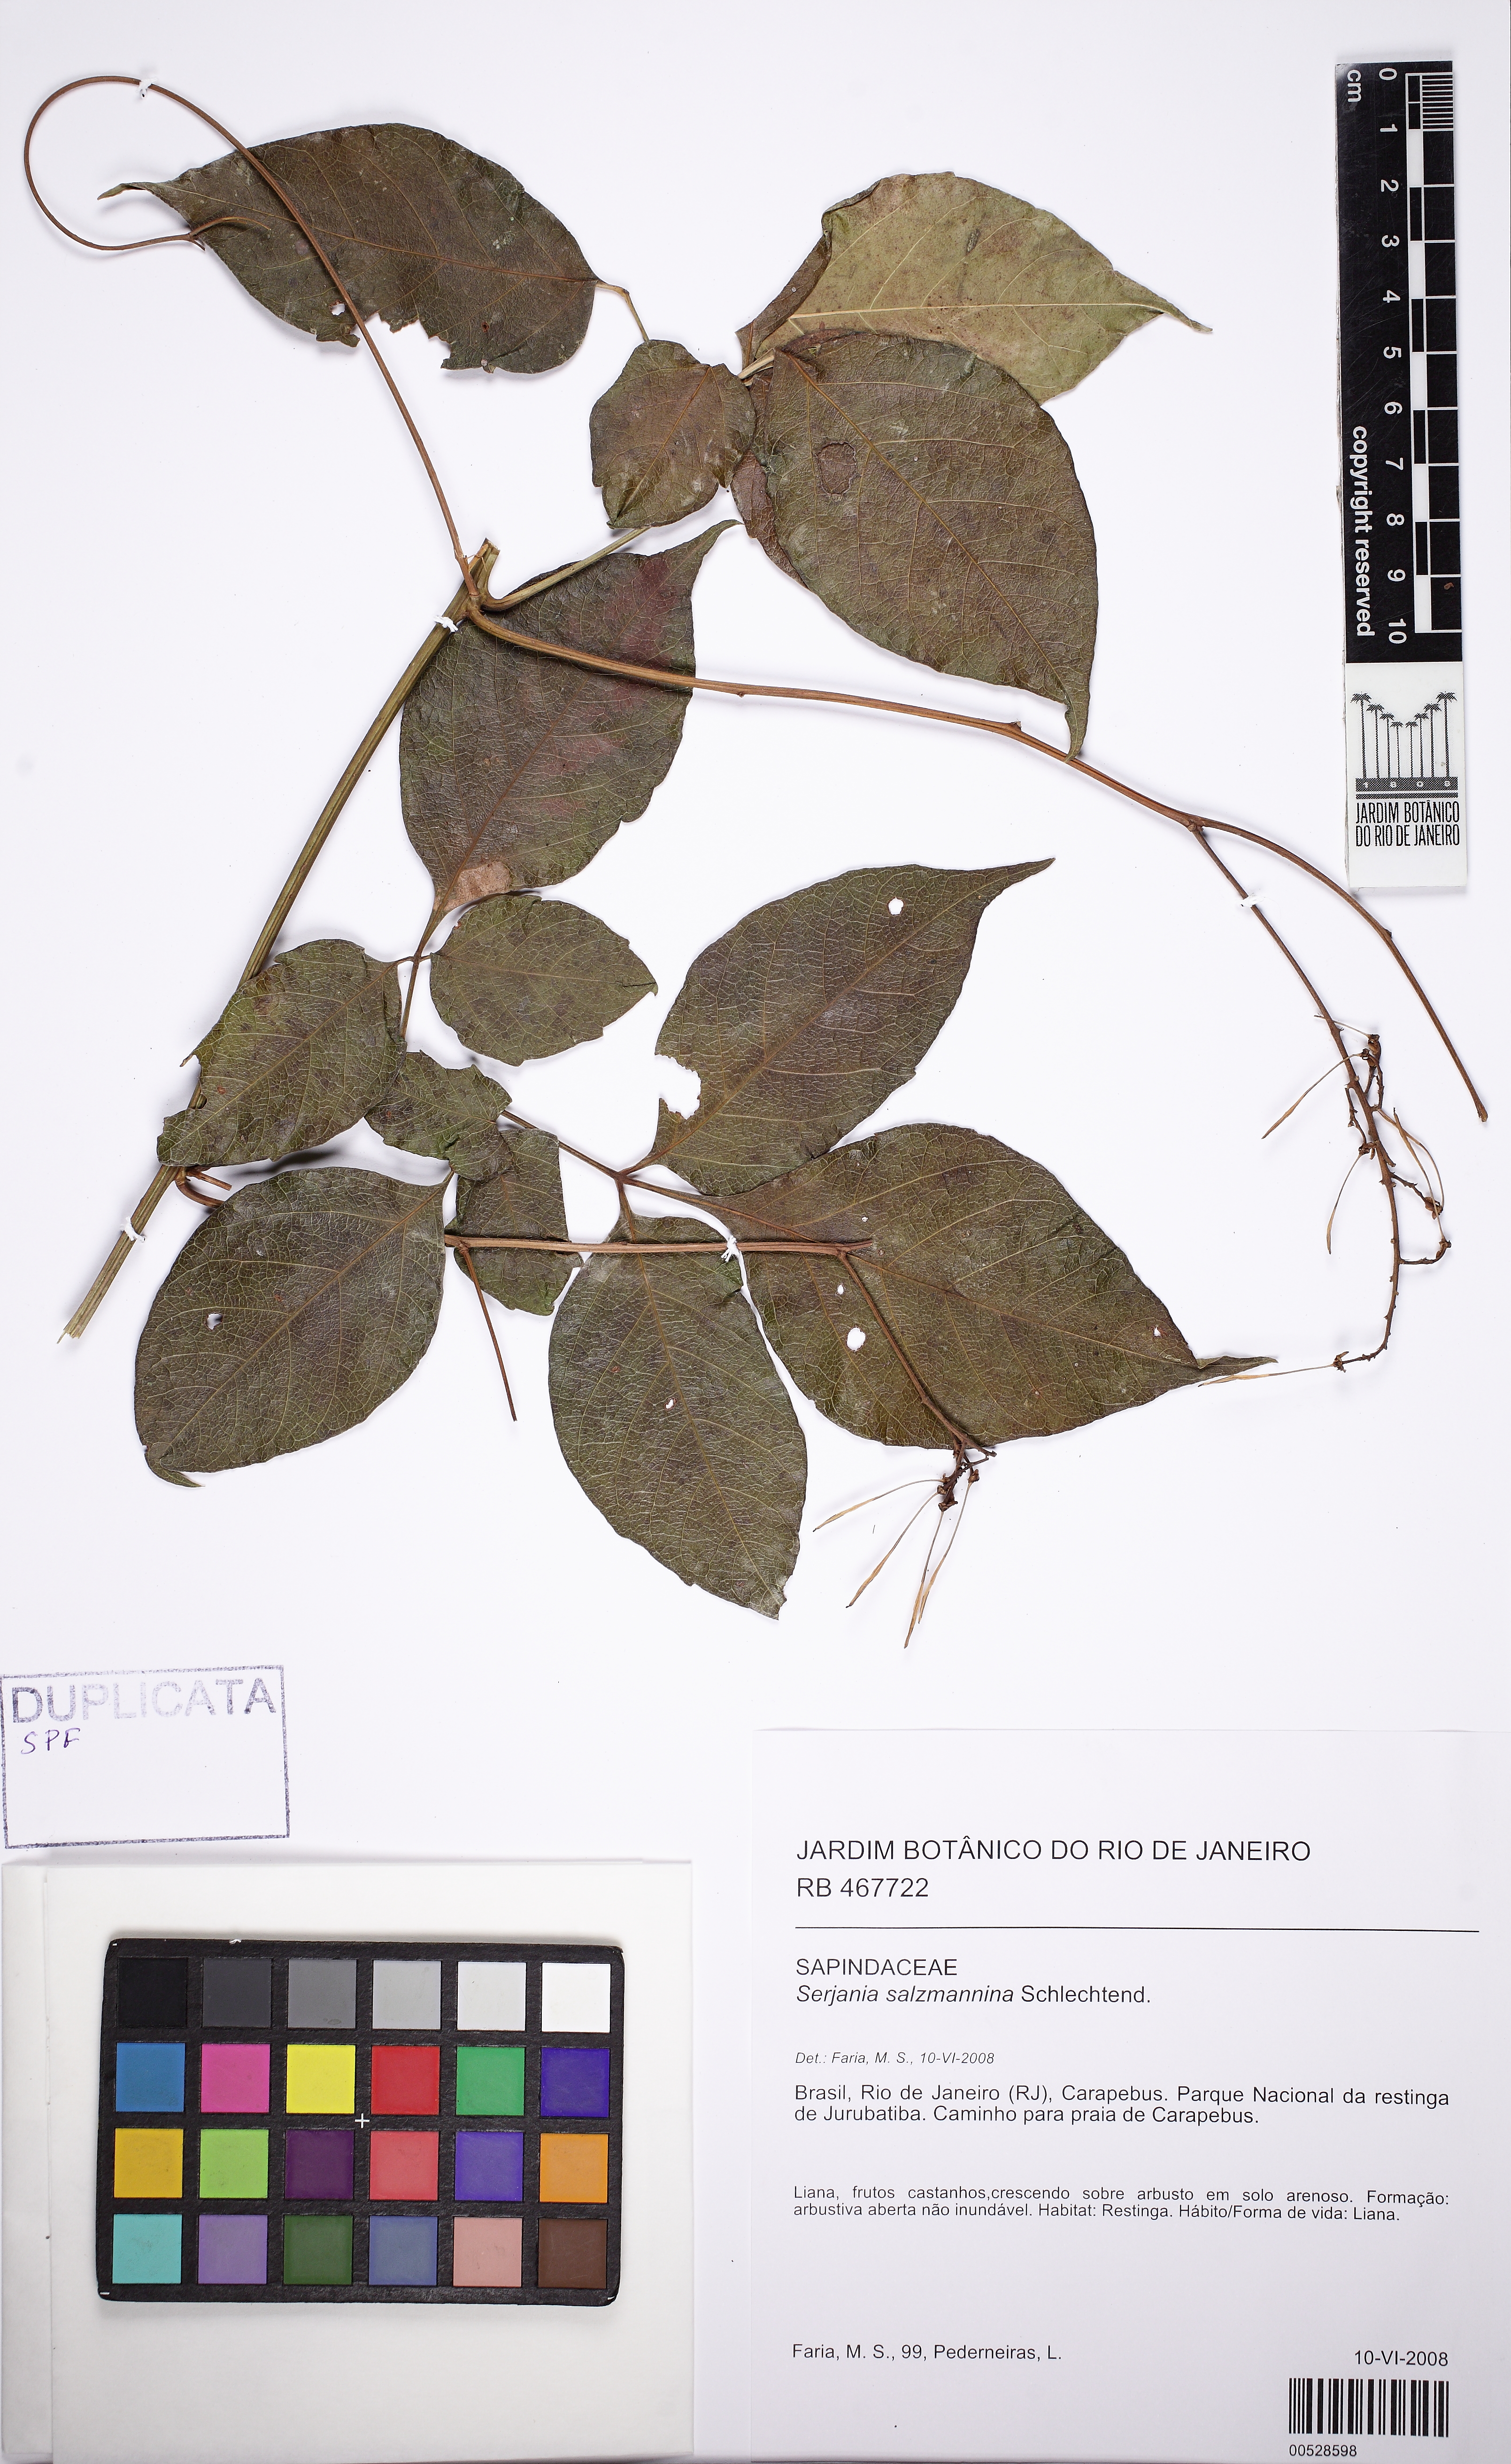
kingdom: Plantae
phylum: Tracheophyta
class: Magnoliopsida
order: Sapindales
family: Sapindaceae
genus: Serjania
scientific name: Serjania salzmanniana
